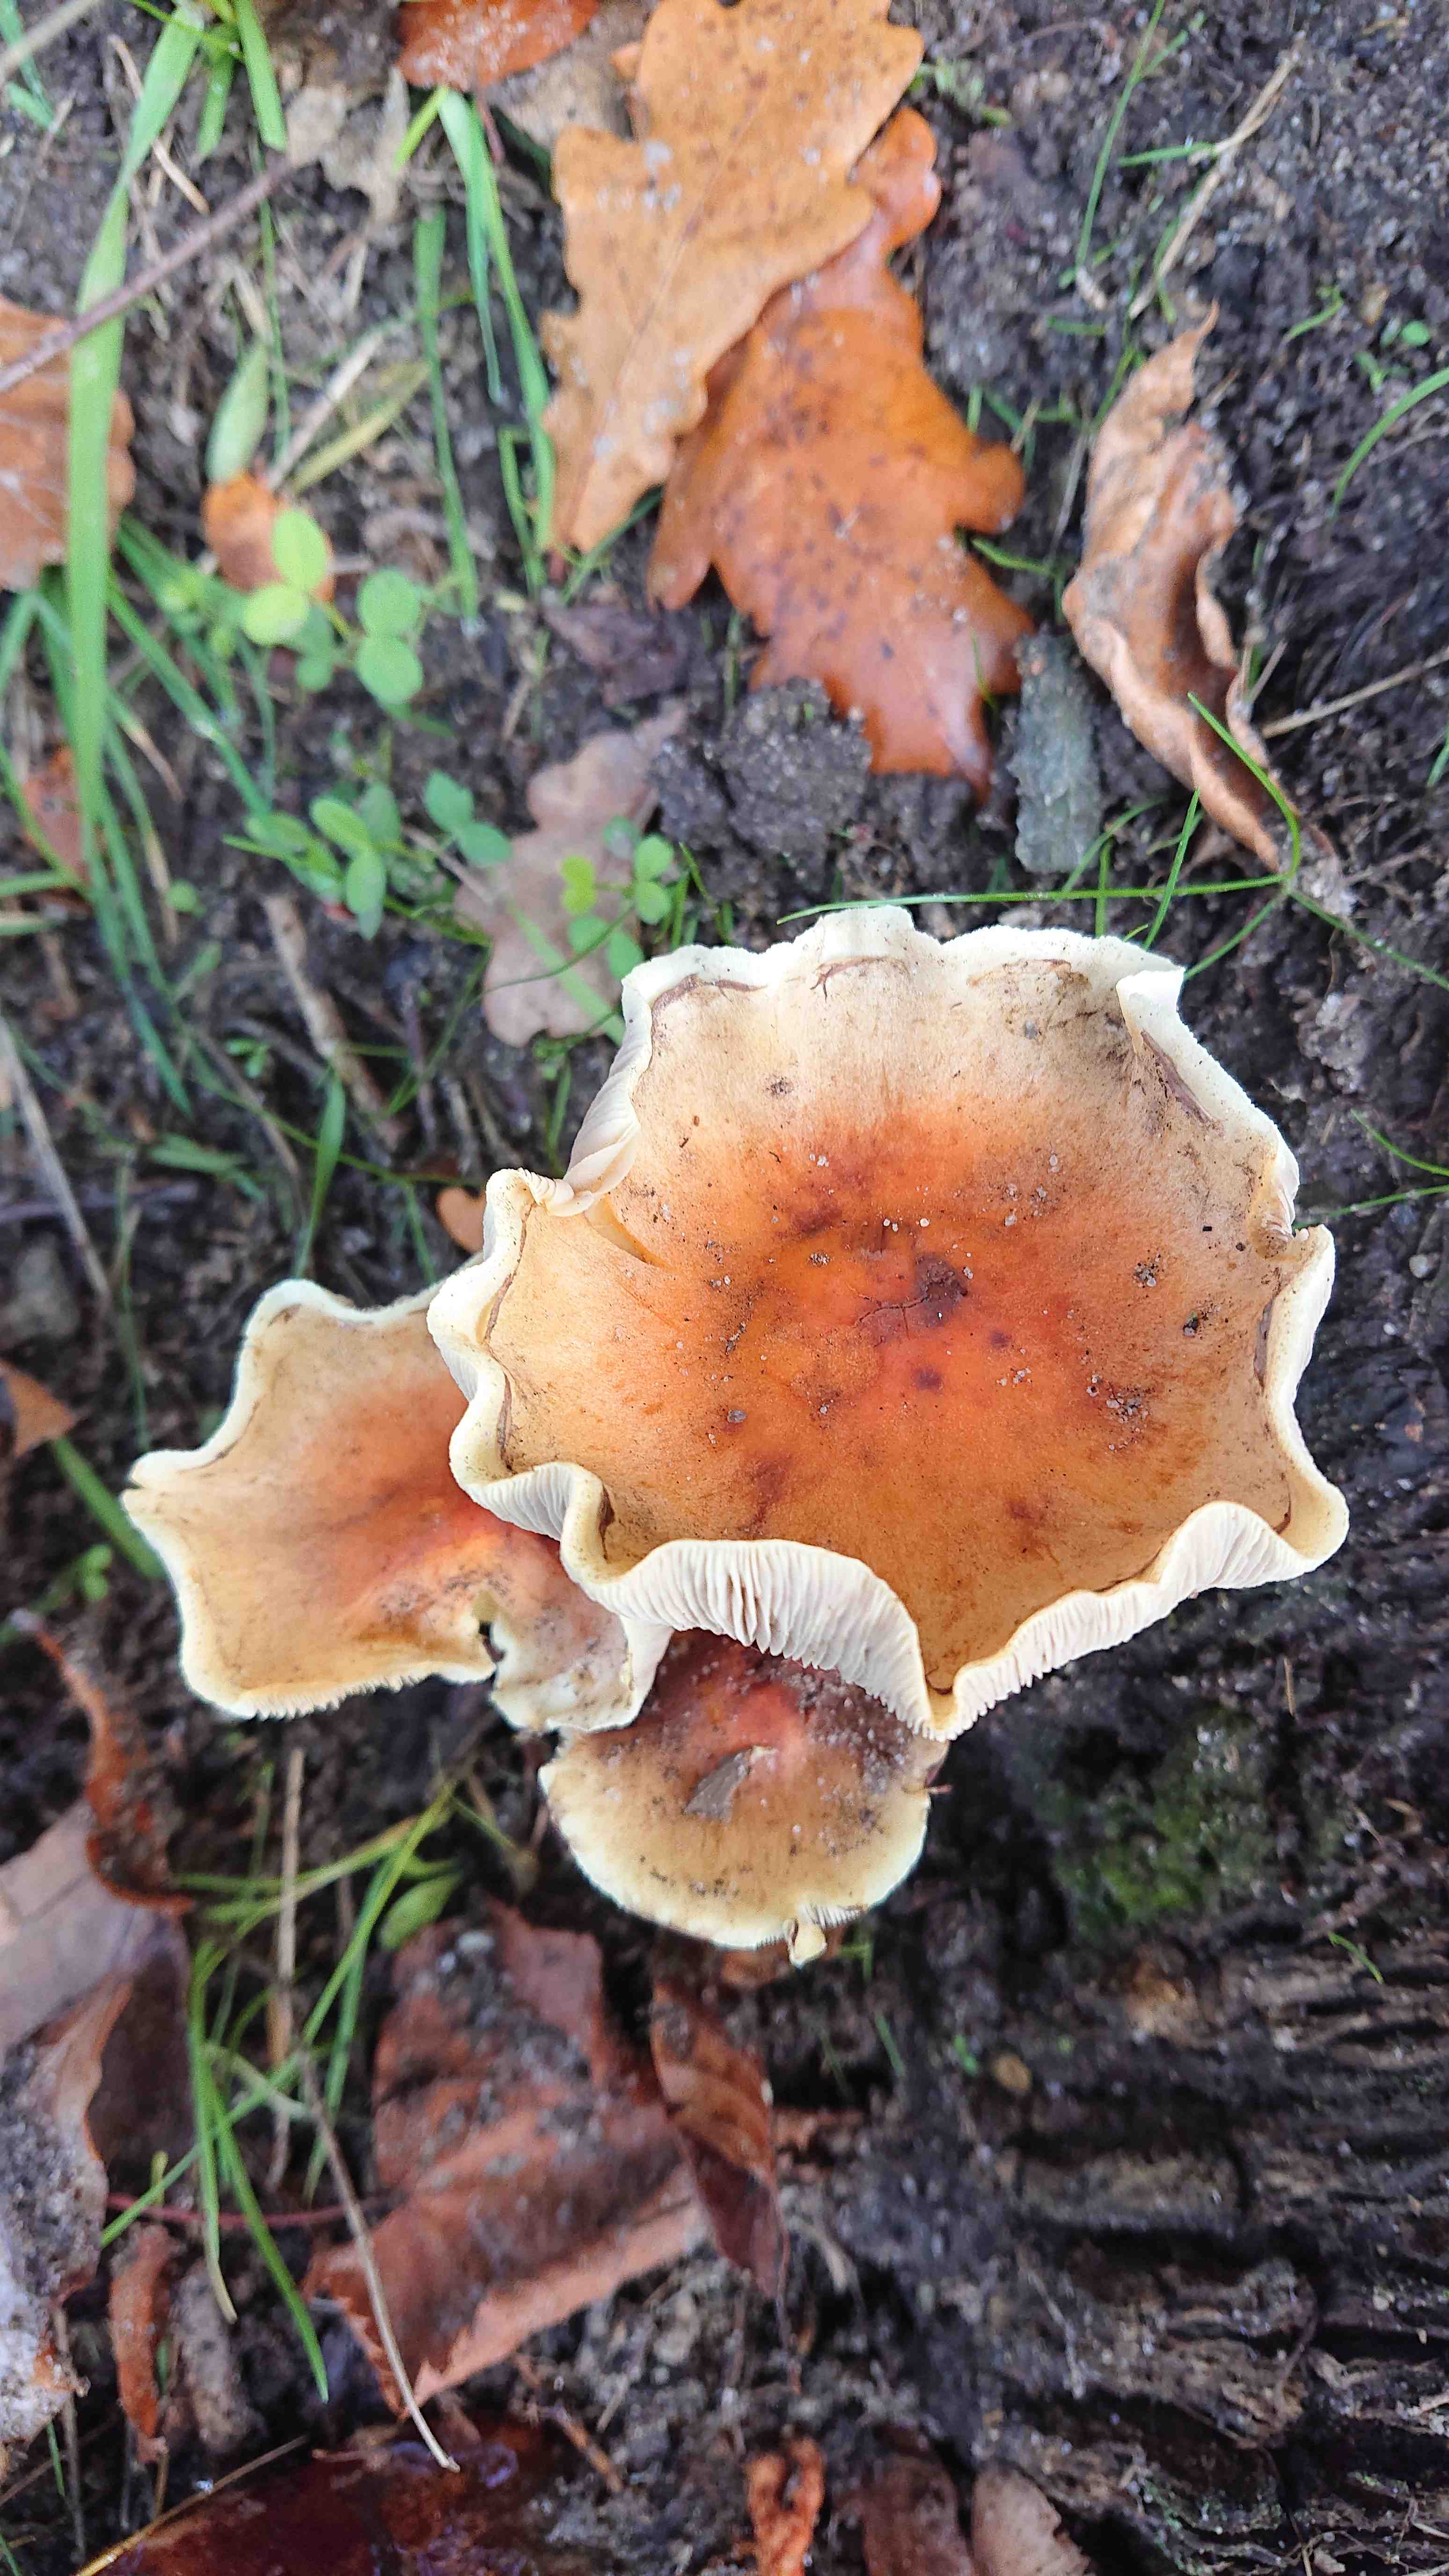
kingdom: Fungi
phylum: Basidiomycota
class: Agaricomycetes
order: Agaricales
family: Strophariaceae
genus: Hypholoma
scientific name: Hypholoma lateritium
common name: teglrød svovlhat
